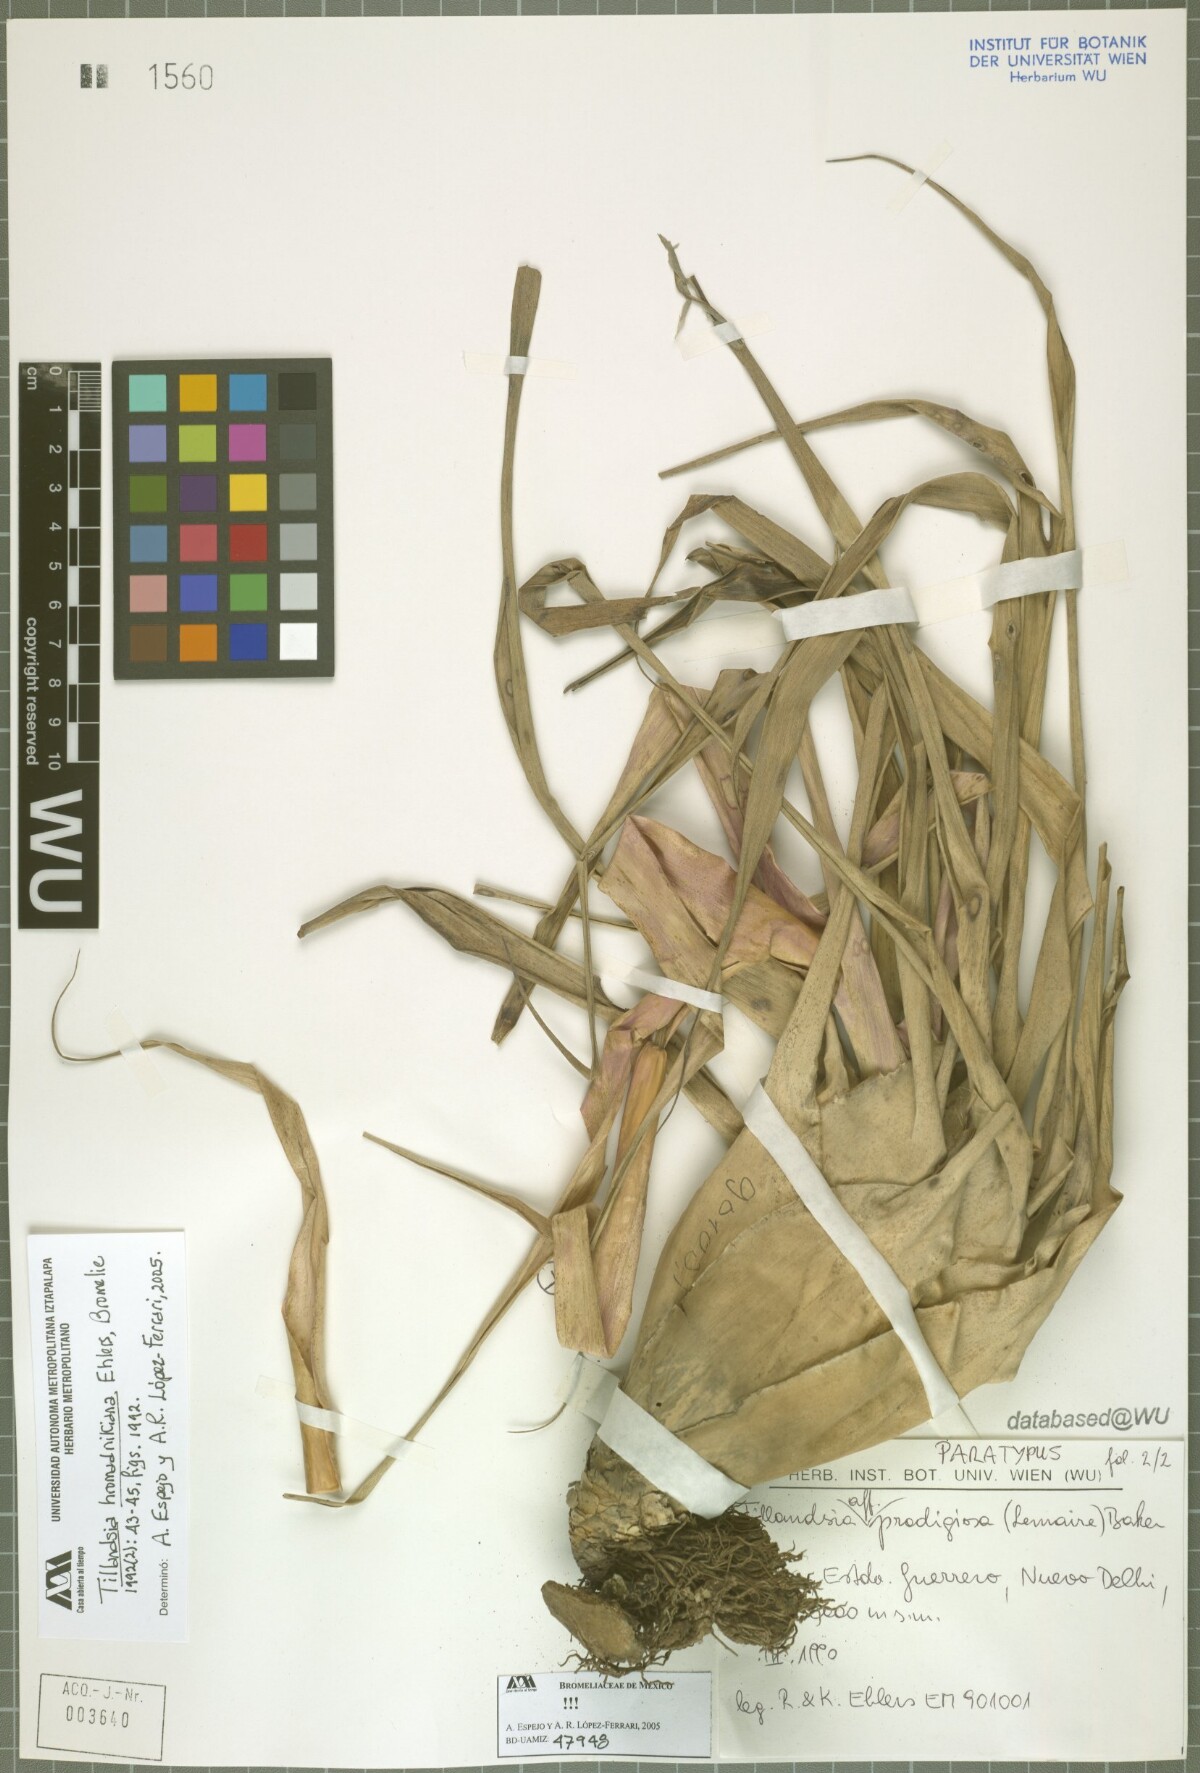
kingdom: Plantae
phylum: Tracheophyta
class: Liliopsida
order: Poales
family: Bromeliaceae
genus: Tillandsia
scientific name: Tillandsia prodigiosa
